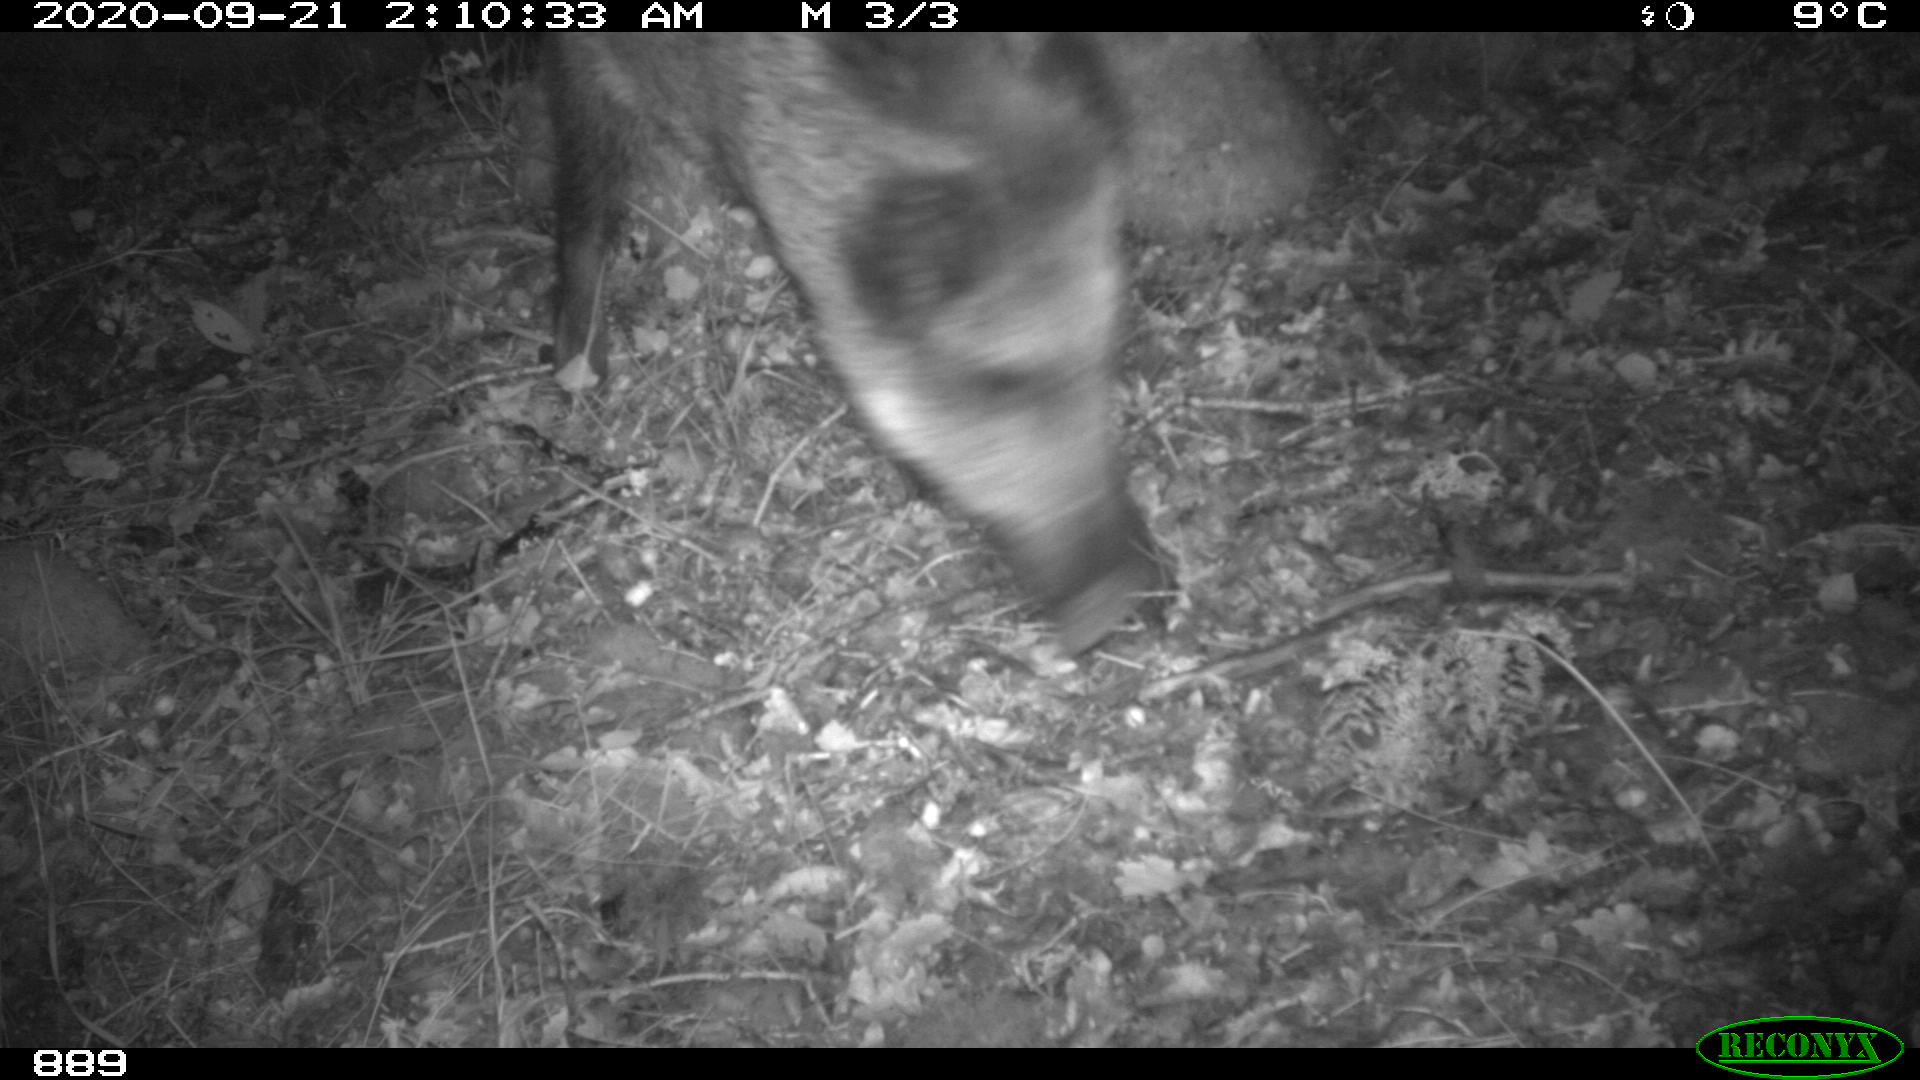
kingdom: Animalia
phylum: Chordata
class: Mammalia
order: Artiodactyla
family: Suidae
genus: Sus
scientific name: Sus scrofa
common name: Wild boar
